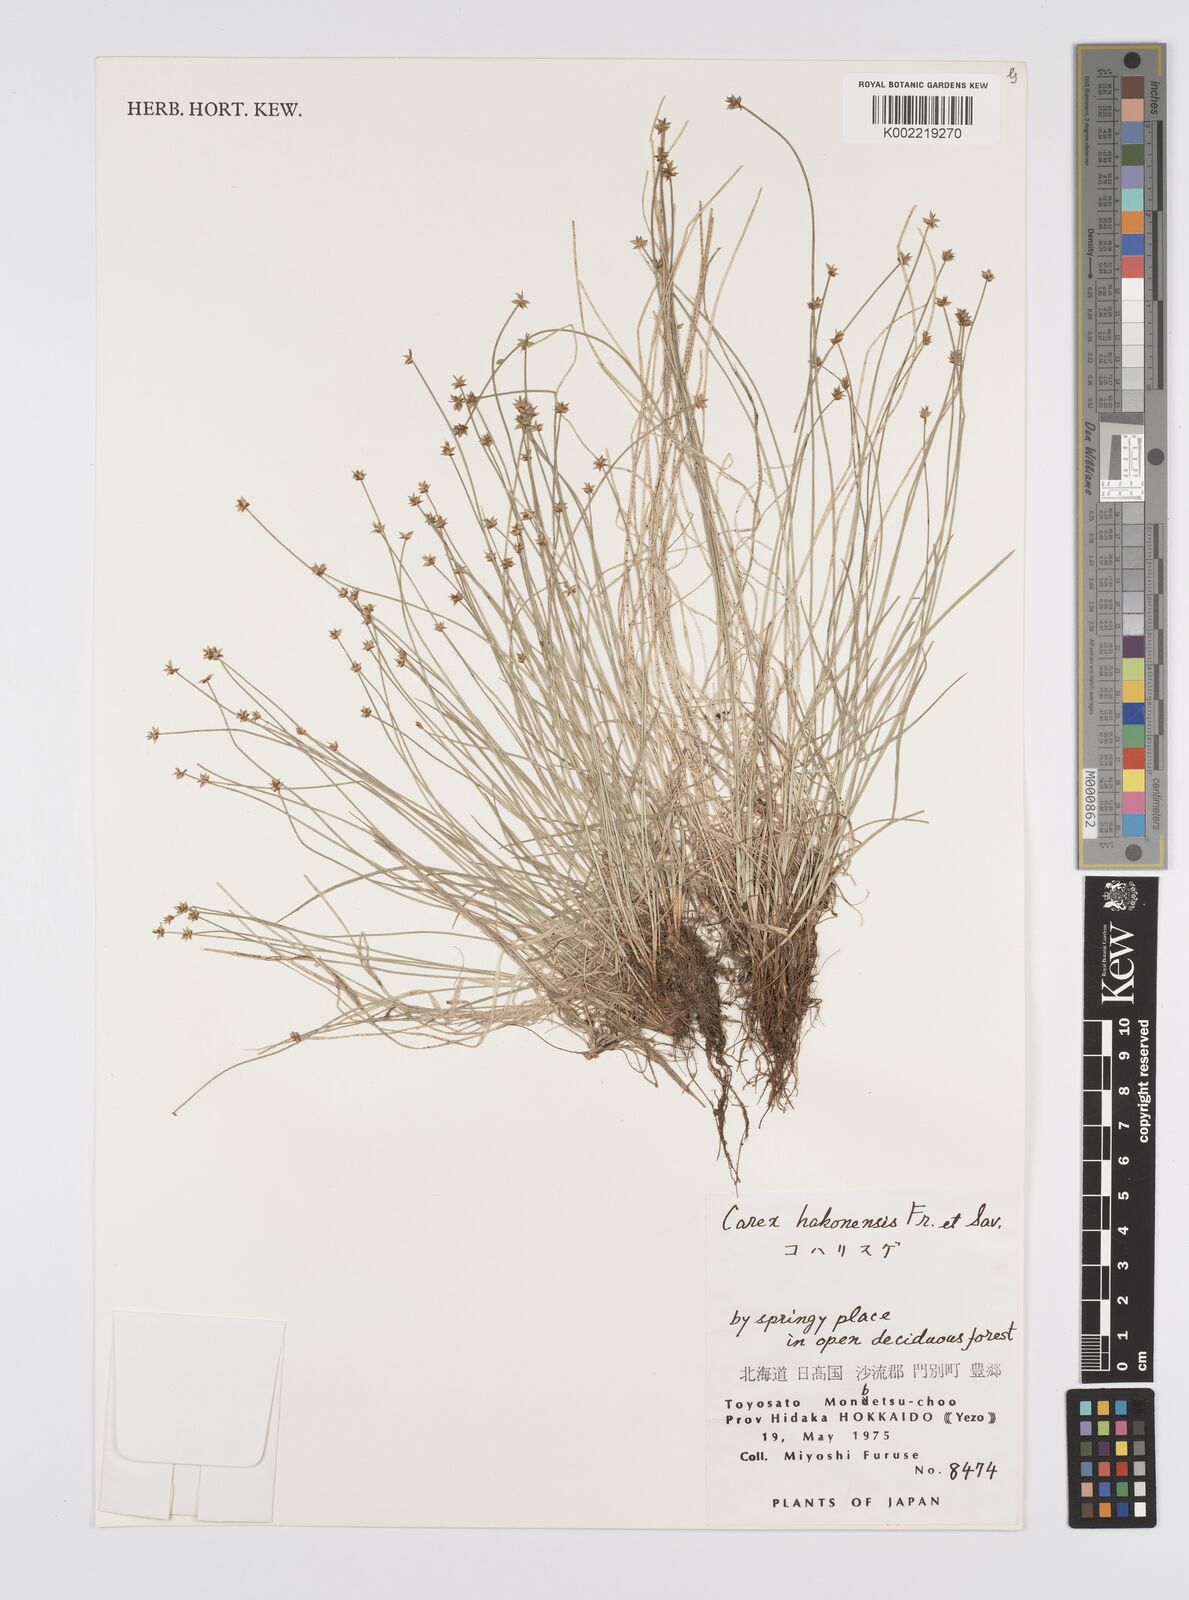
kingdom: Plantae
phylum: Tracheophyta
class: Liliopsida
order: Poales
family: Cyperaceae
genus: Carex
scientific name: Carex onoei
